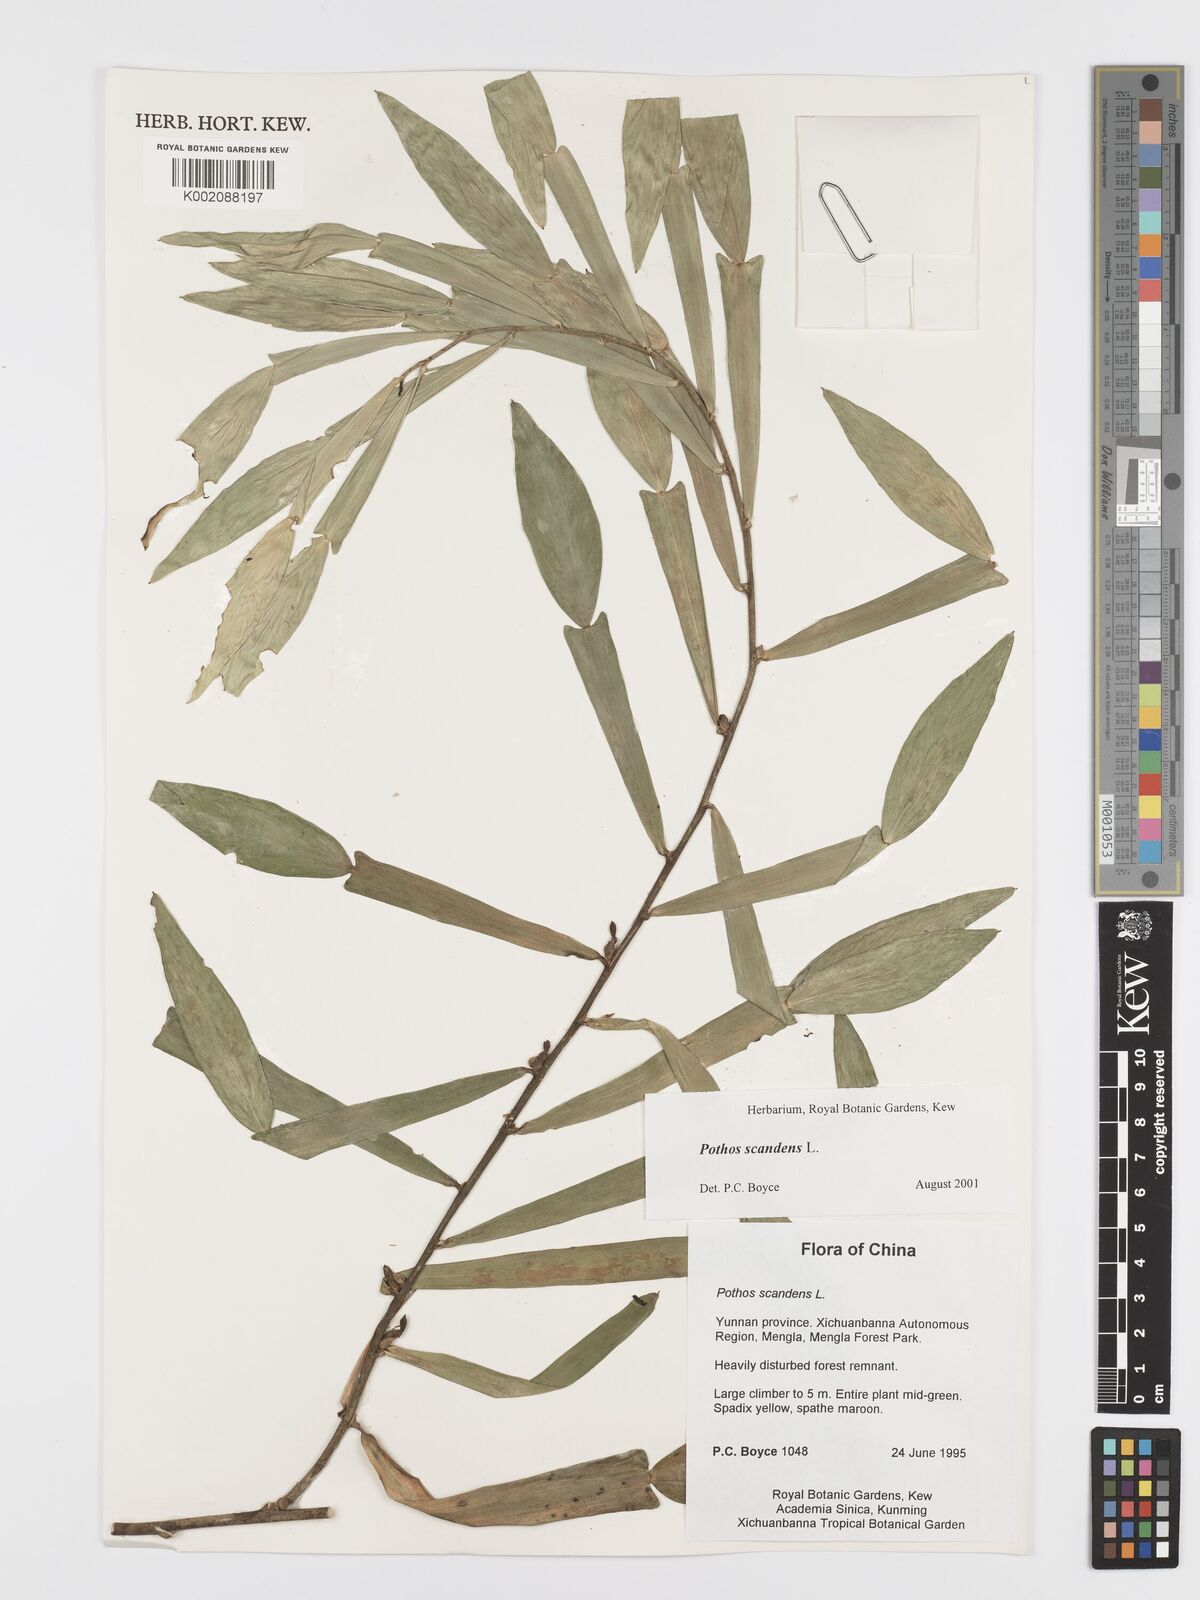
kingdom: Plantae
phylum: Tracheophyta
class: Liliopsida
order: Alismatales
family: Araceae
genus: Pothos
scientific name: Pothos scandens
